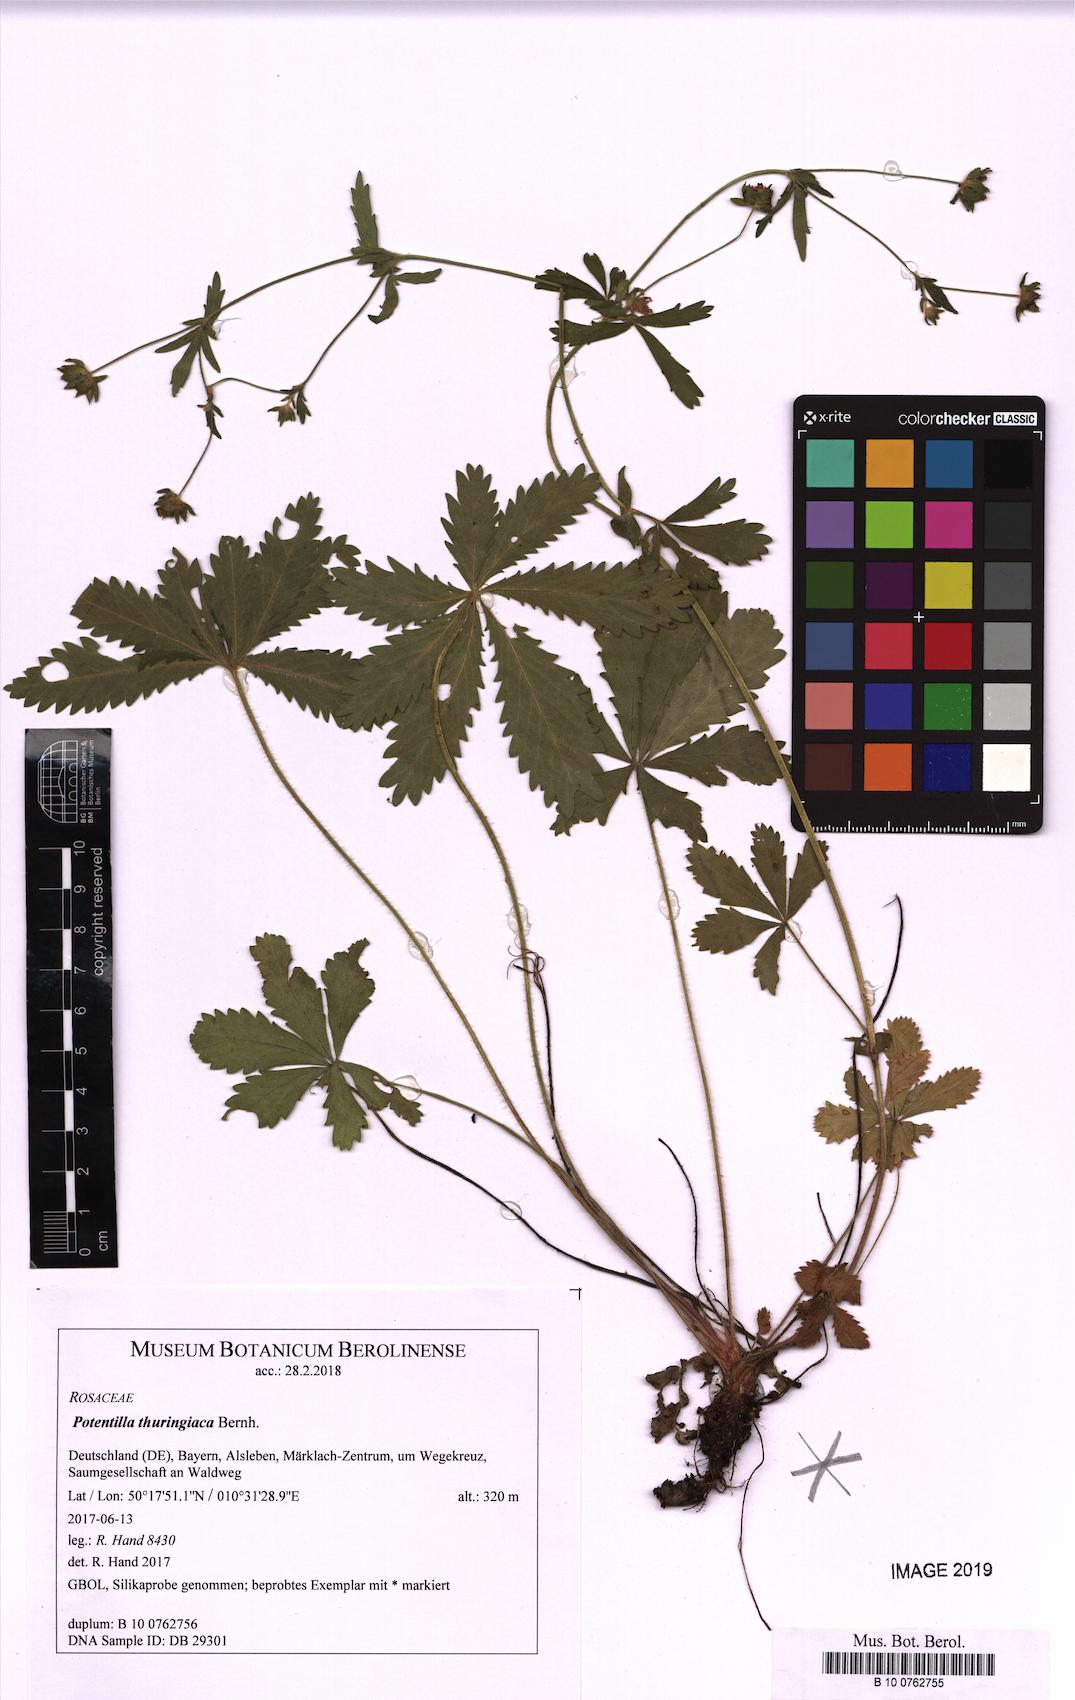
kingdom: Plantae
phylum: Tracheophyta
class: Magnoliopsida
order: Rosales
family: Rosaceae
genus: Potentilla
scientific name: Potentilla thuringiaca
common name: European cinquefoil
